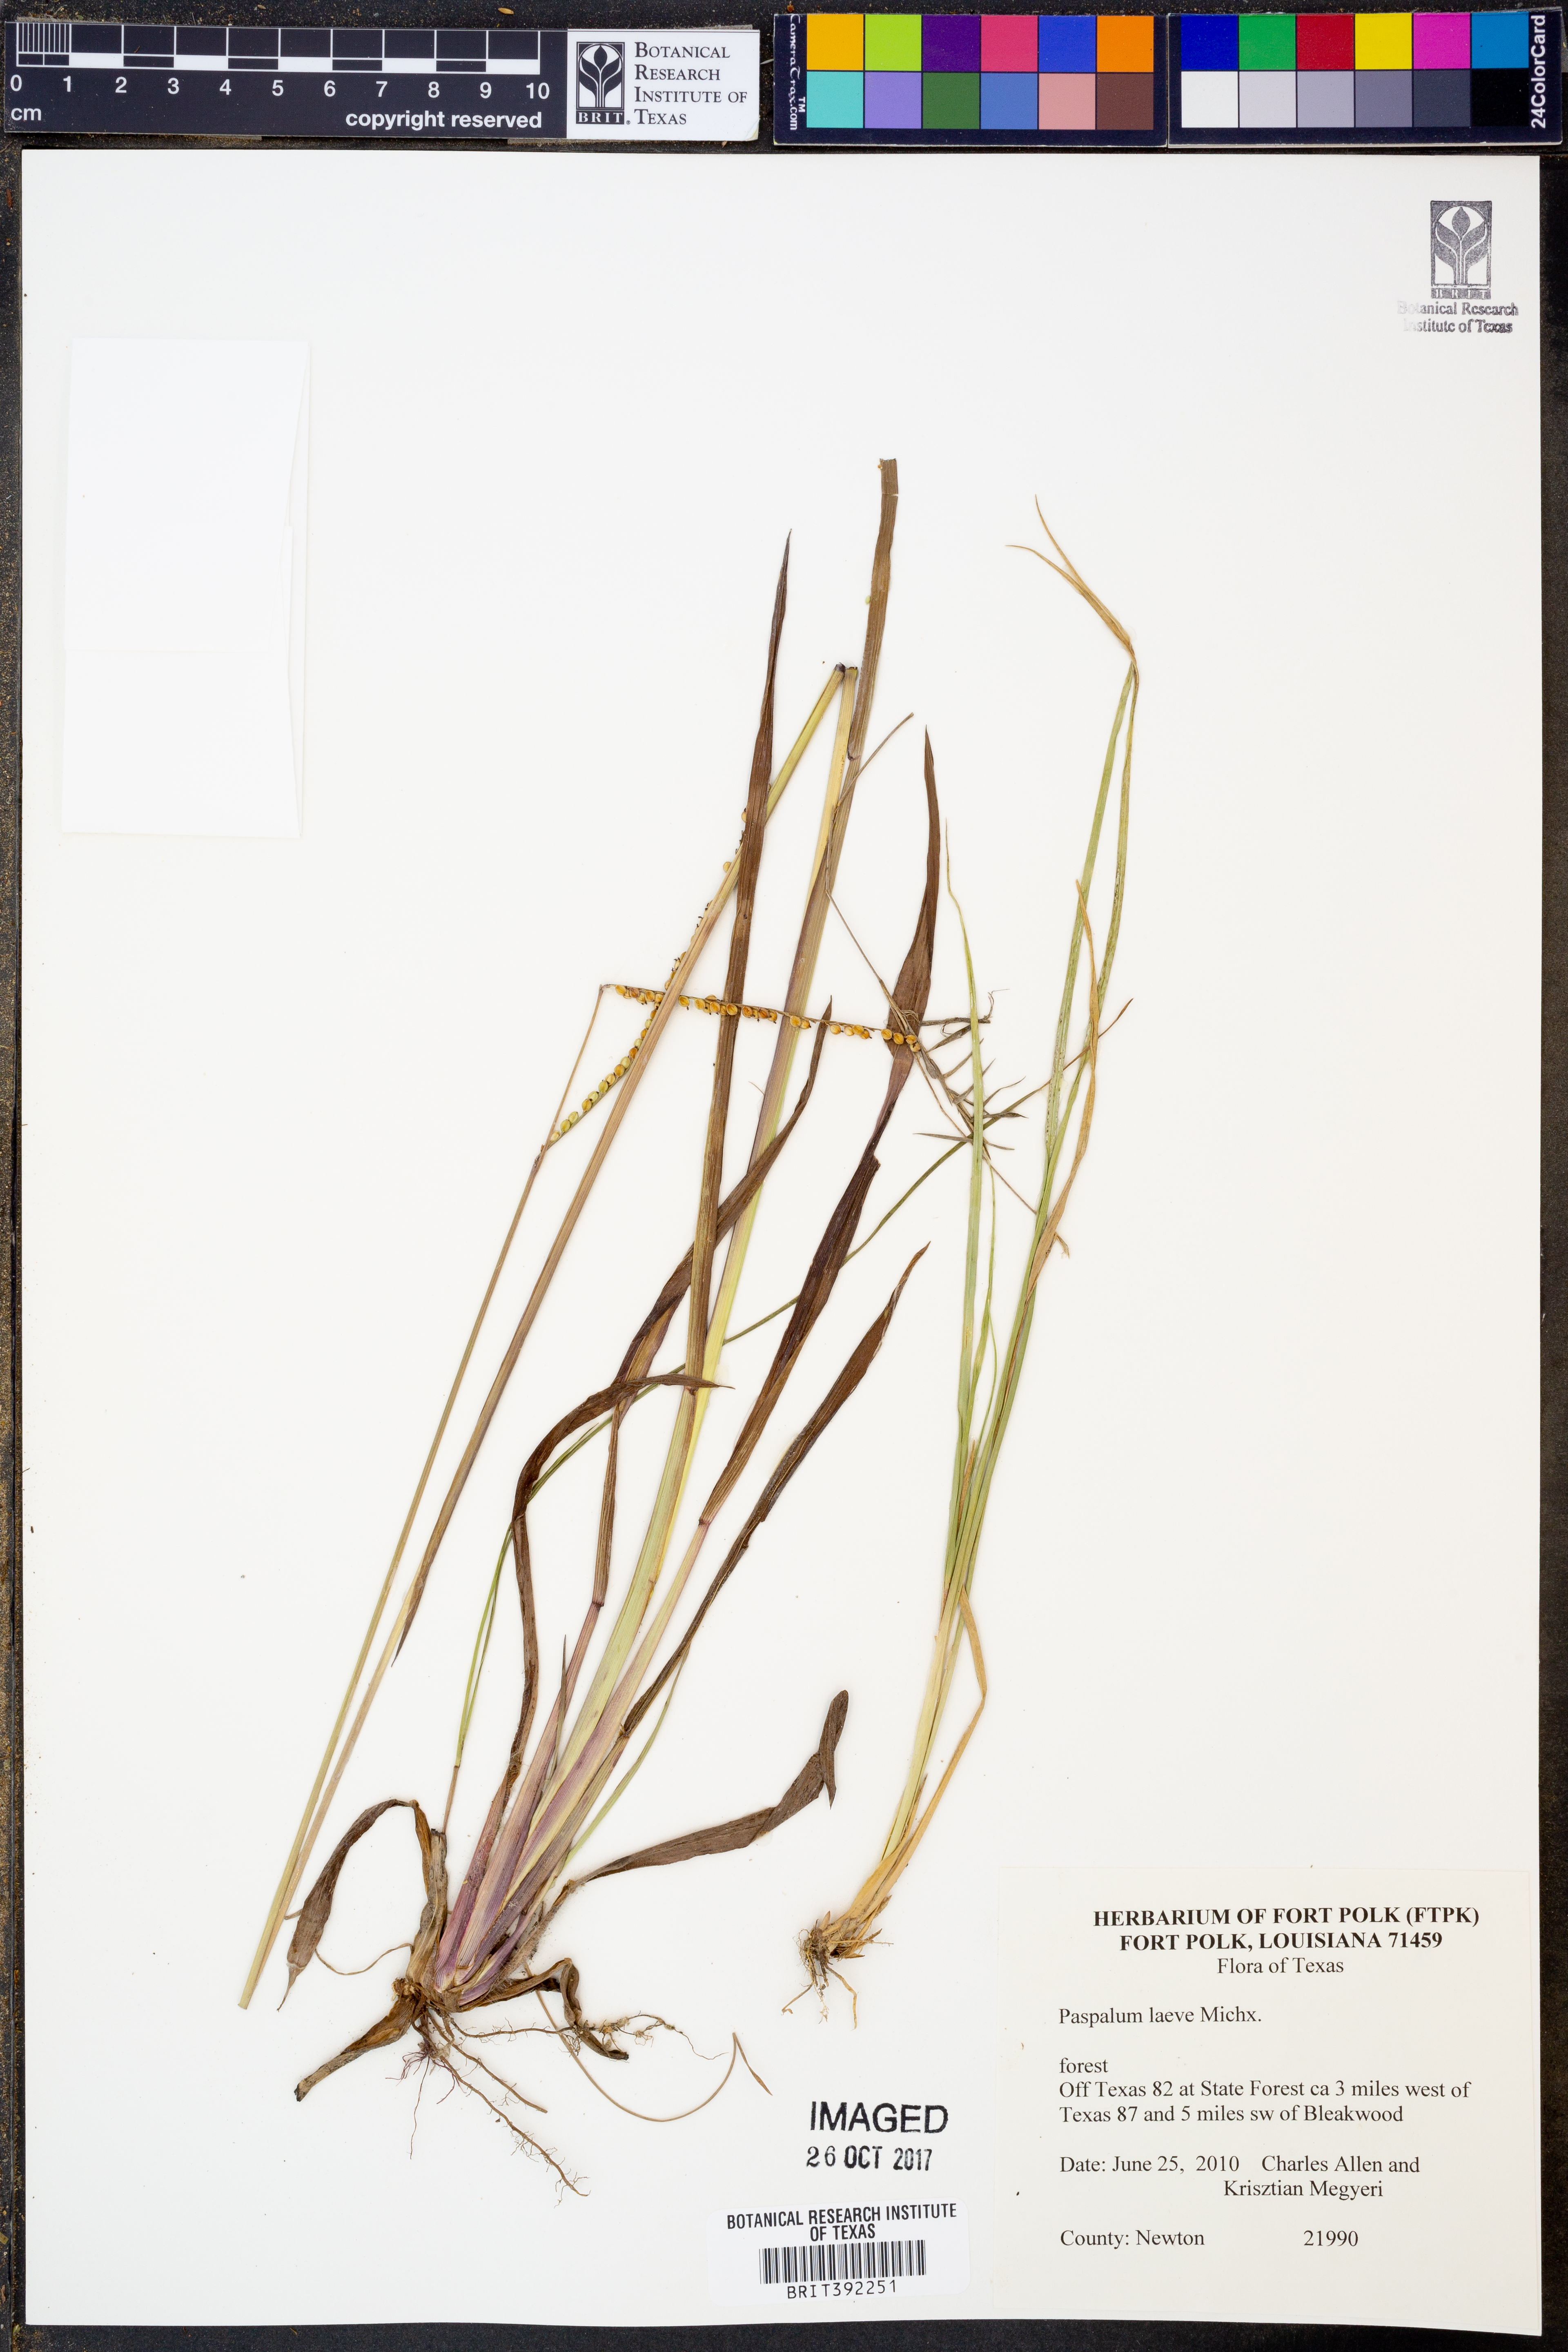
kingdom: Plantae
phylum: Tracheophyta
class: Liliopsida
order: Poales
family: Poaceae
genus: Paspalum
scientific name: Paspalum laeve
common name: Field paspalum
